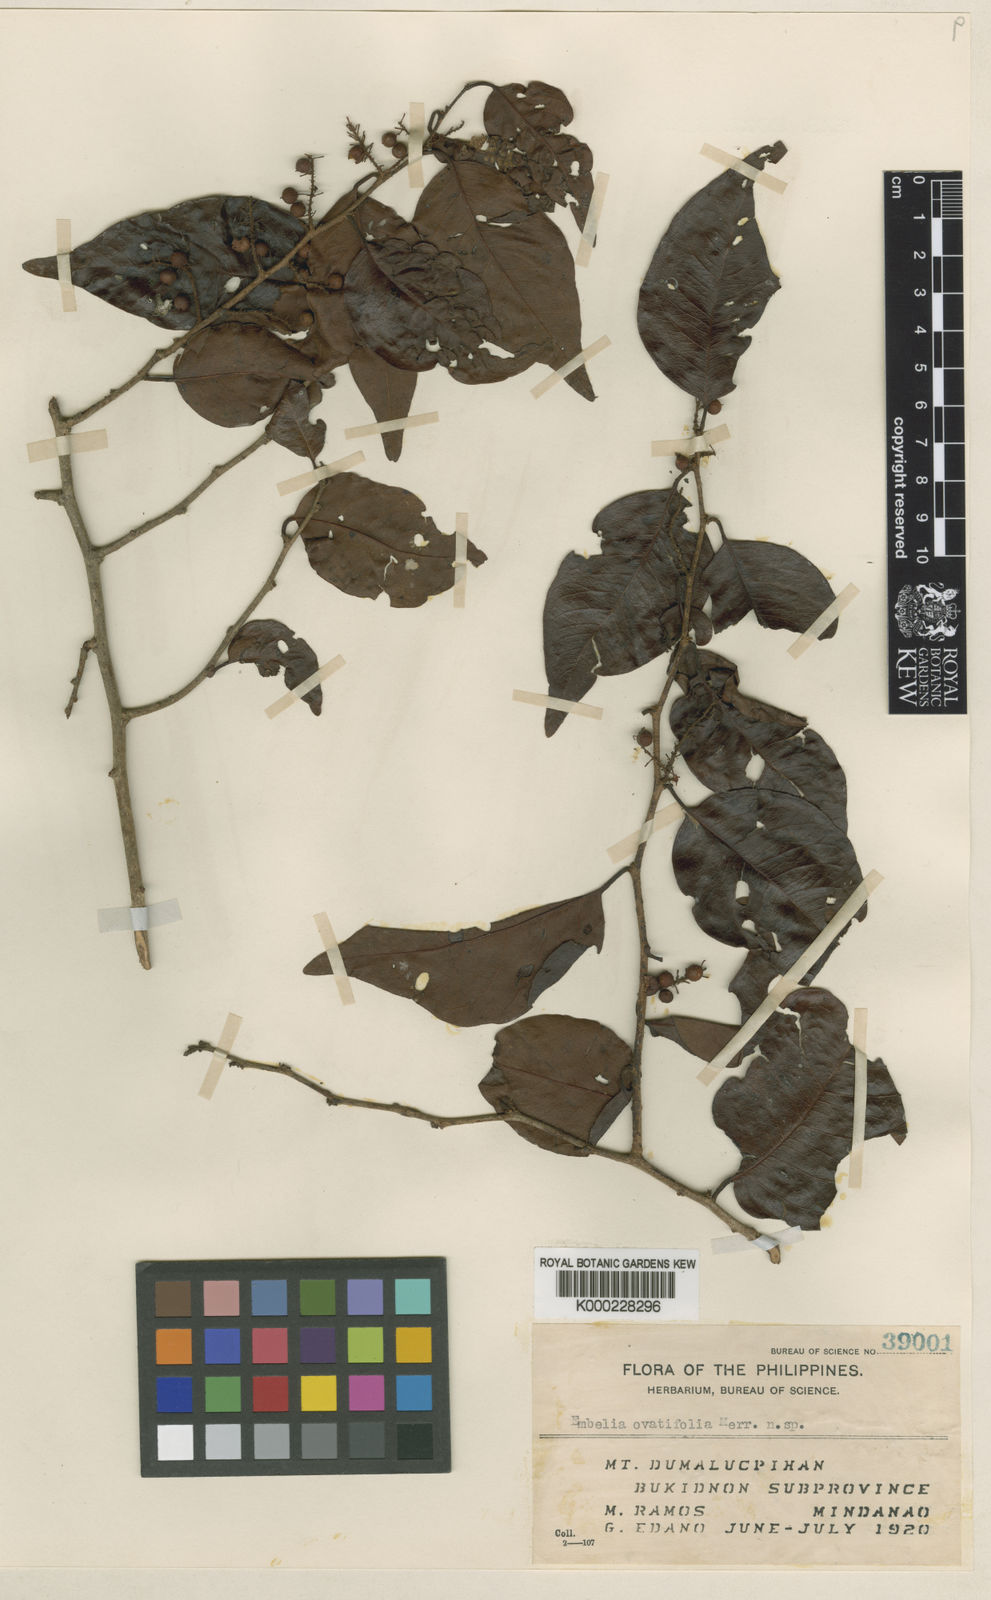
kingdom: Plantae
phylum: Tracheophyta
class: Magnoliopsida
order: Ericales
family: Primulaceae
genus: Embelia
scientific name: Embelia ovatifolia
